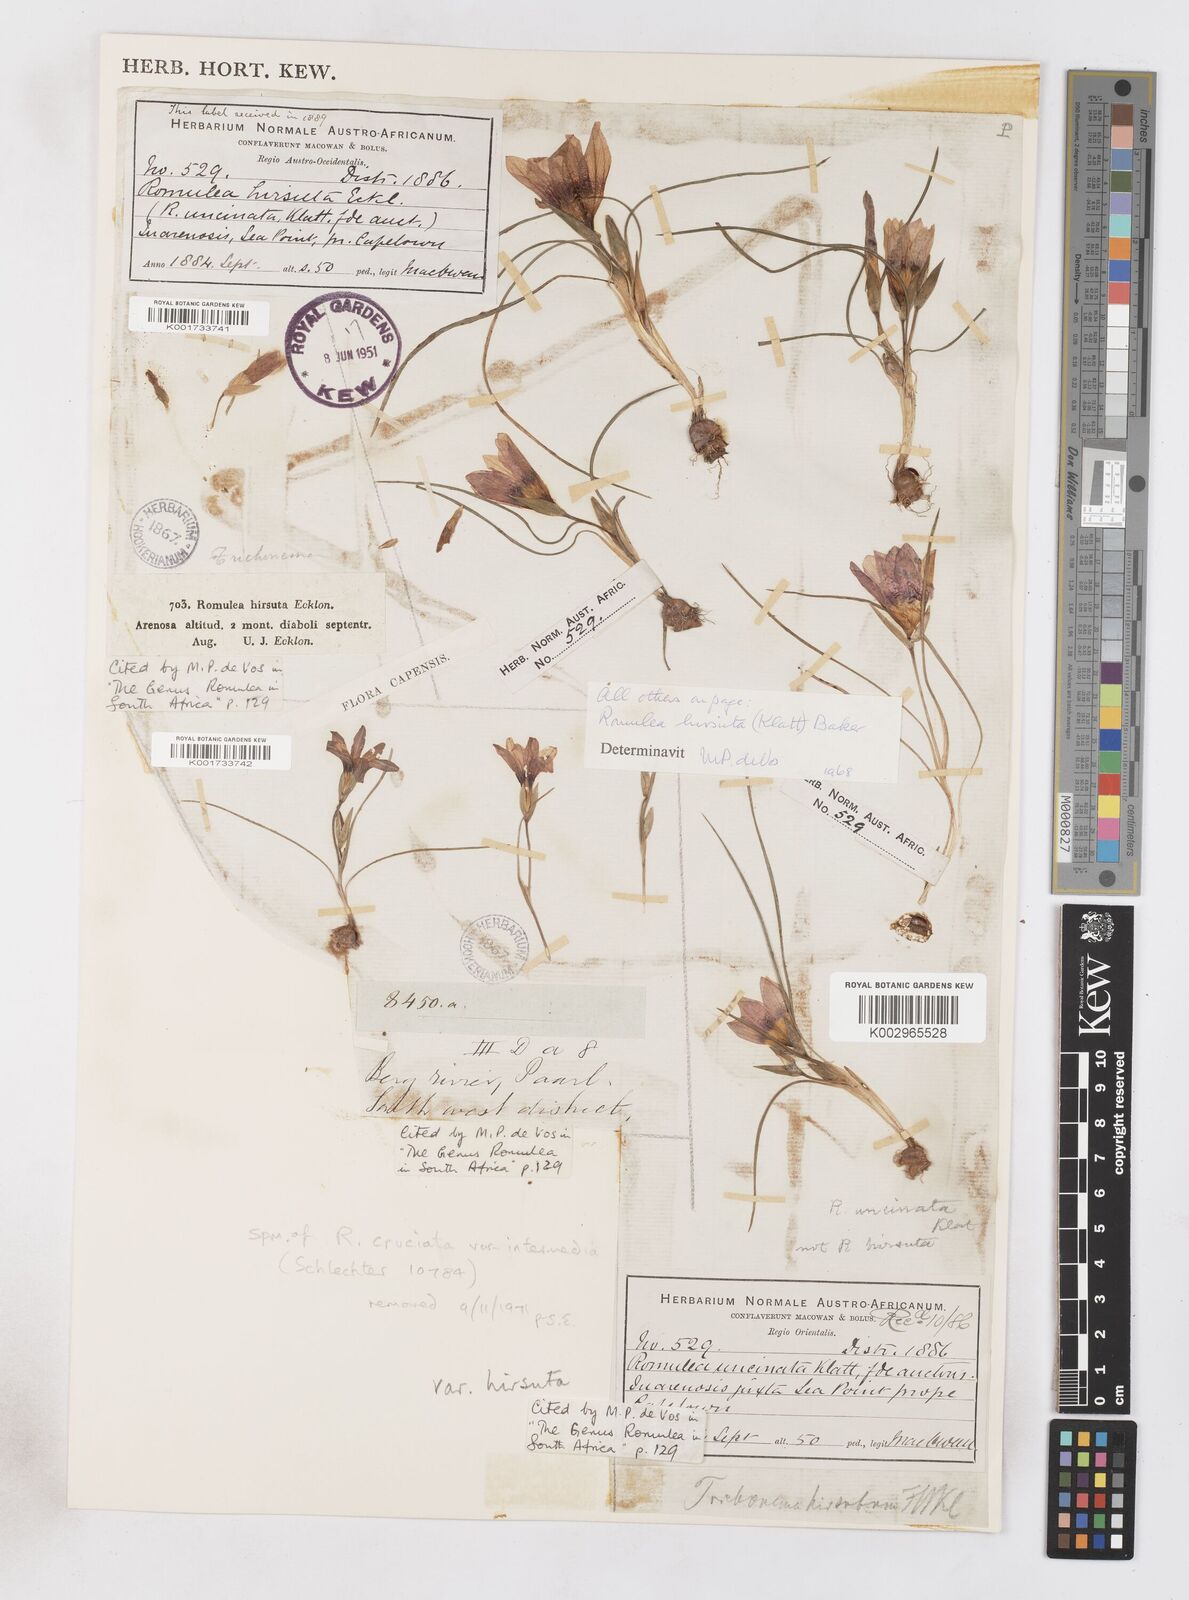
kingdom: Plantae
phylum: Tracheophyta
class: Liliopsida
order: Asparagales
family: Iridaceae
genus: Romulea
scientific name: Romulea hirsuta
